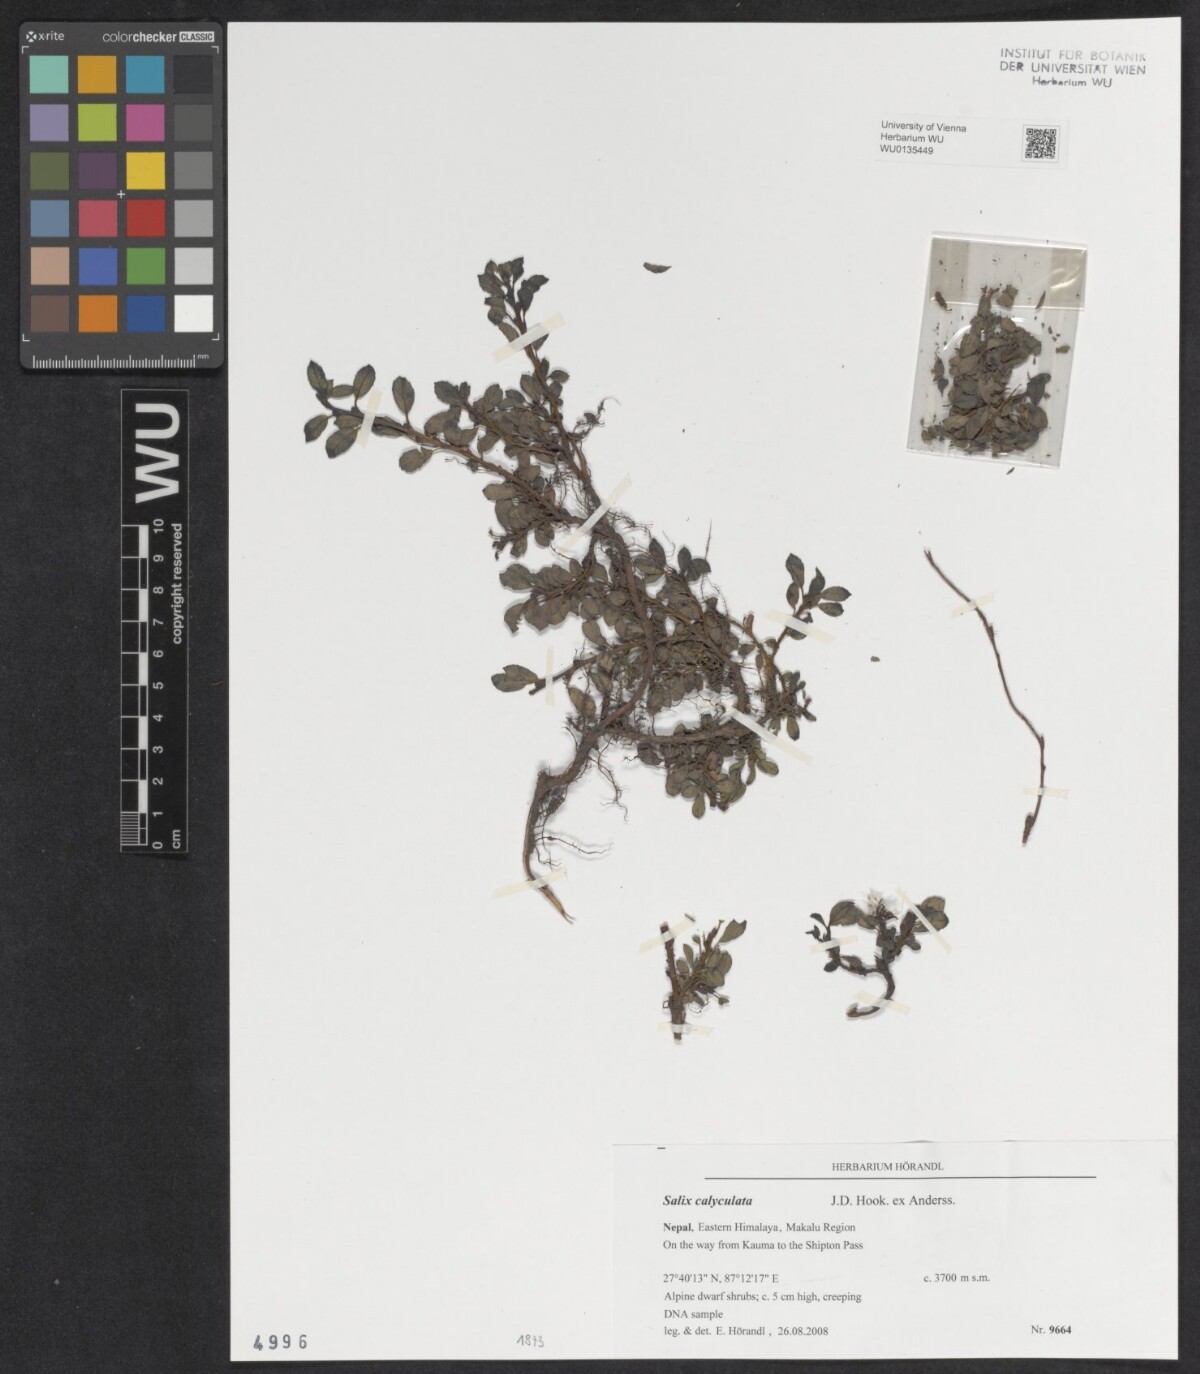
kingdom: Plantae
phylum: Tracheophyta
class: Magnoliopsida
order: Malpighiales
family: Salicaceae
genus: Salix
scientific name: Salix calyculata
